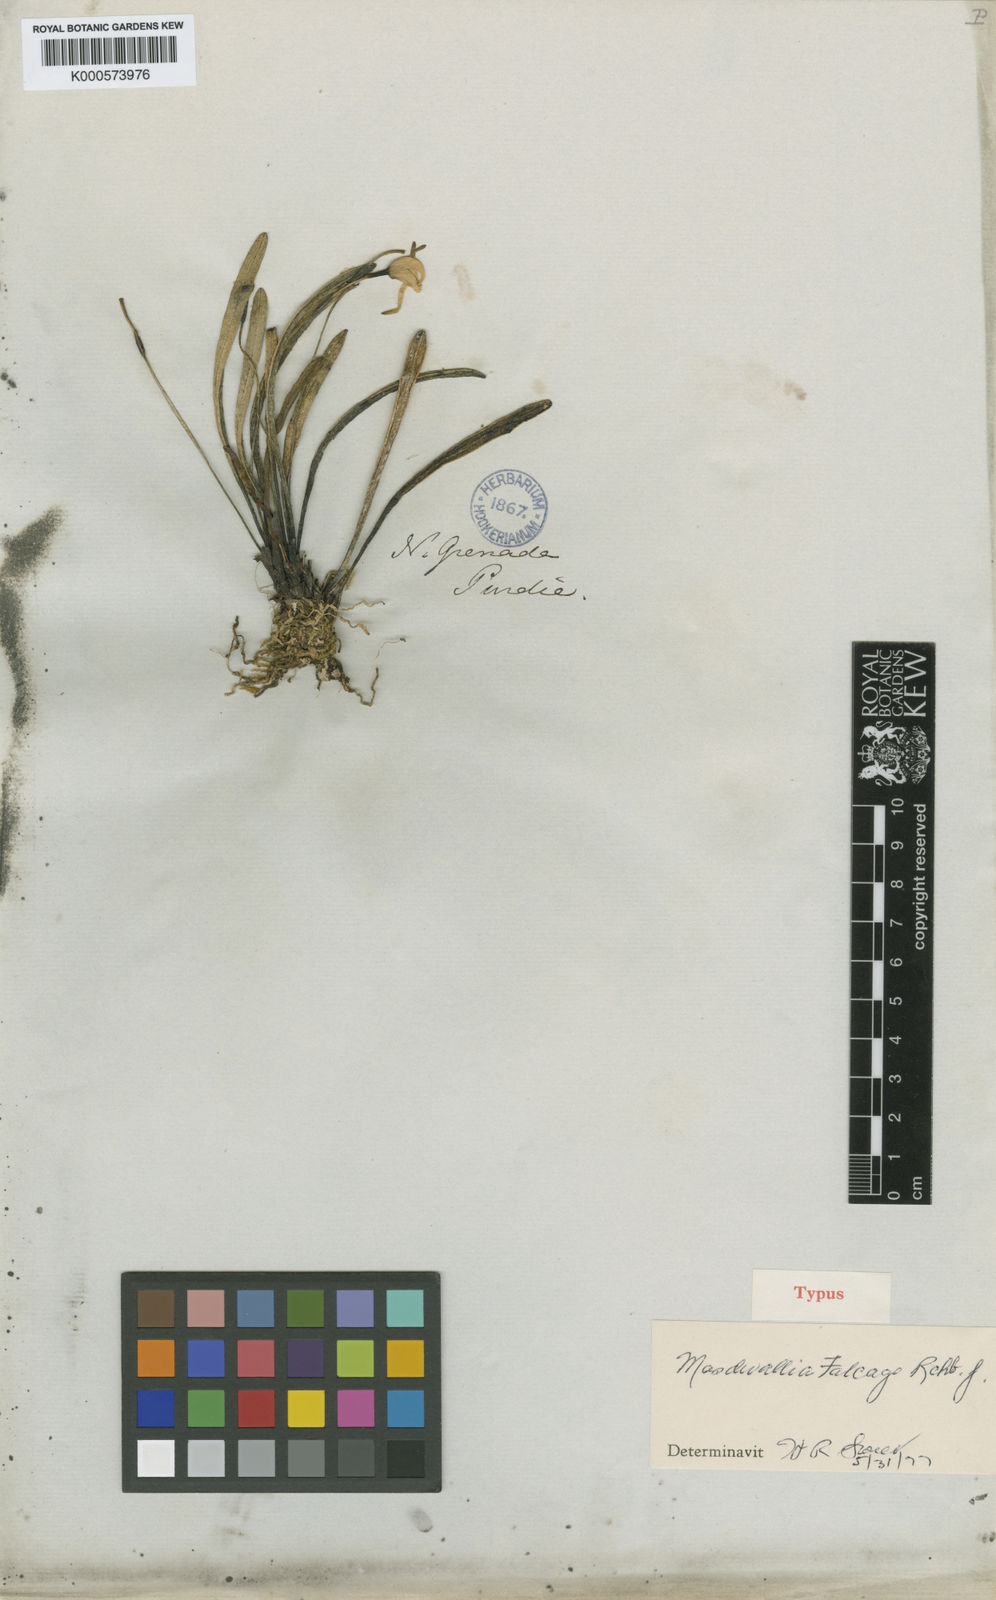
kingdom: Plantae
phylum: Tracheophyta
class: Liliopsida
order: Asparagales
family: Orchidaceae
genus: Masdevallia
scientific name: Masdevallia falcago
